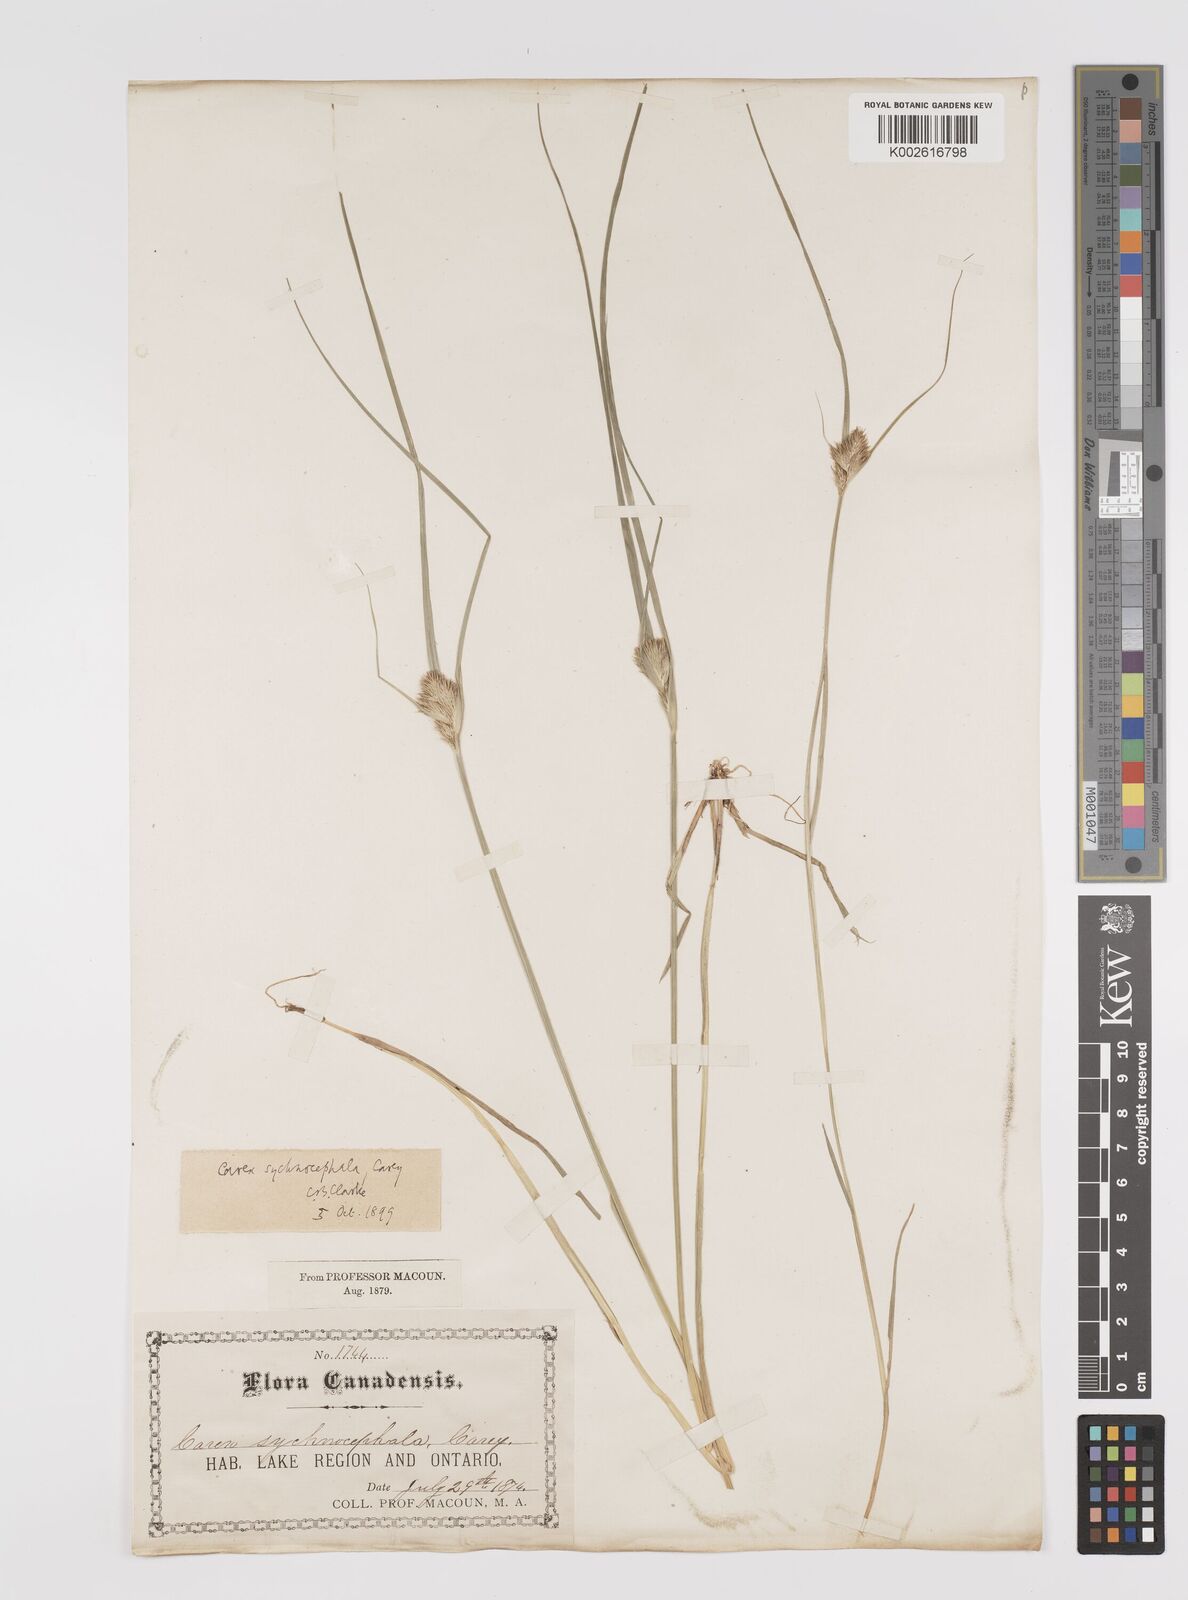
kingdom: Plantae
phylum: Tracheophyta
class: Liliopsida
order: Poales
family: Cyperaceae
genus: Carex
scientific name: Carex sychnocephala
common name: Dense long-beaked sedge
